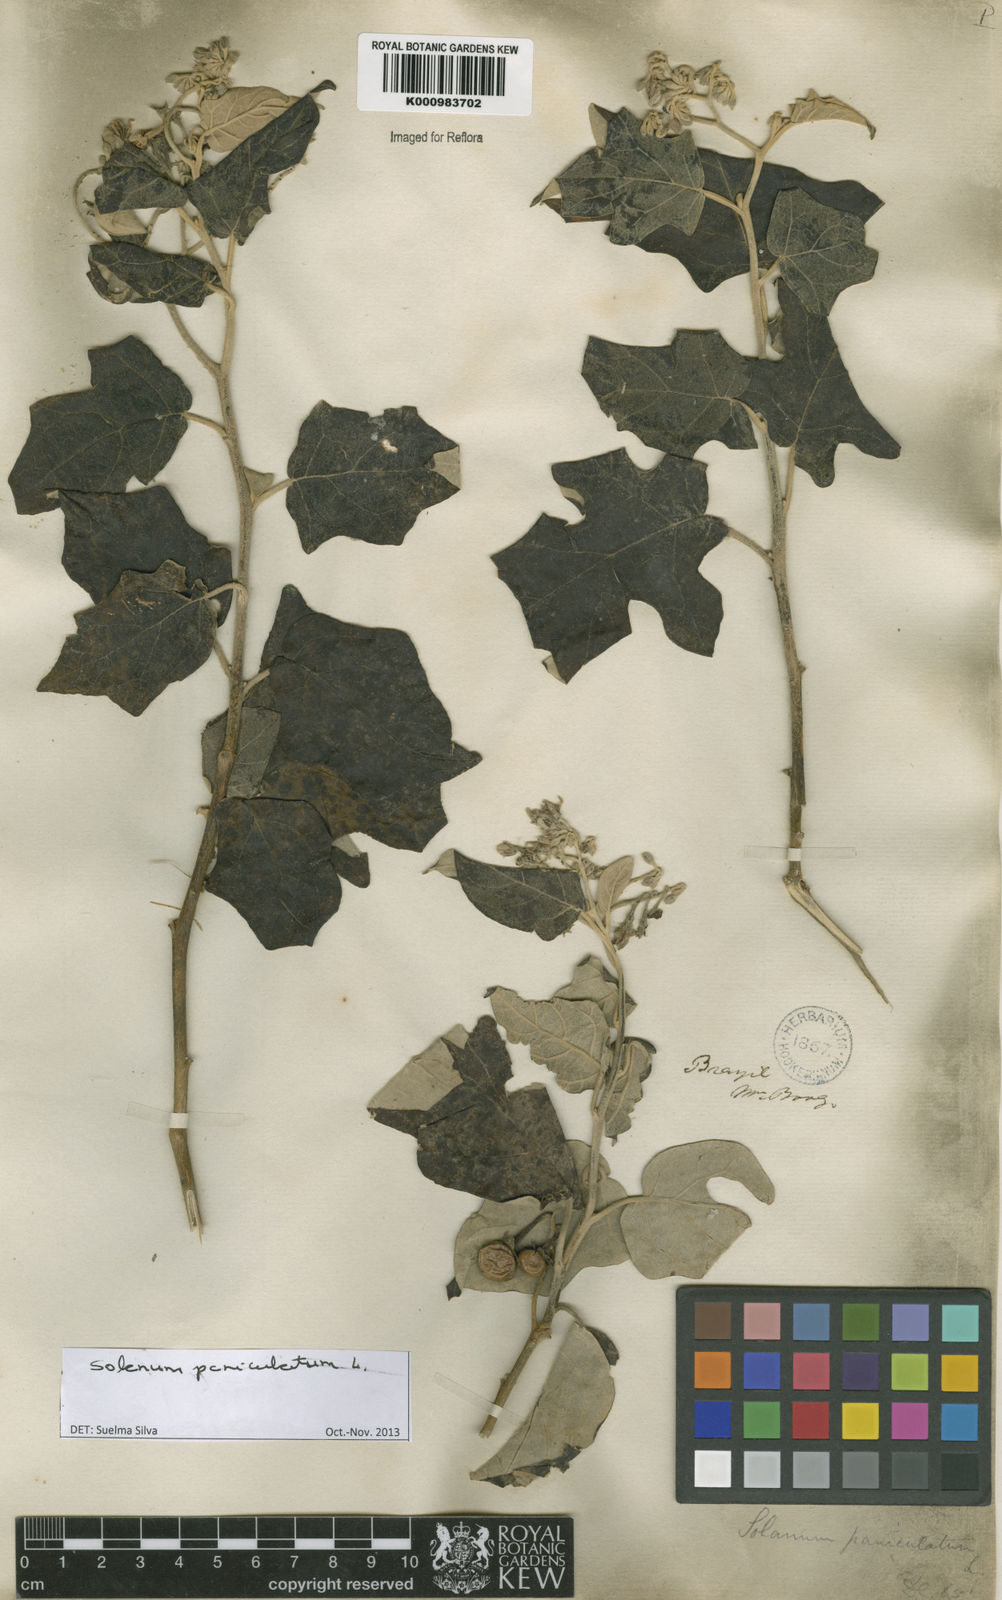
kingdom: Plantae
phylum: Tracheophyta
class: Magnoliopsida
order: Solanales
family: Solanaceae
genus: Solanum
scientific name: Solanum paniculatum
